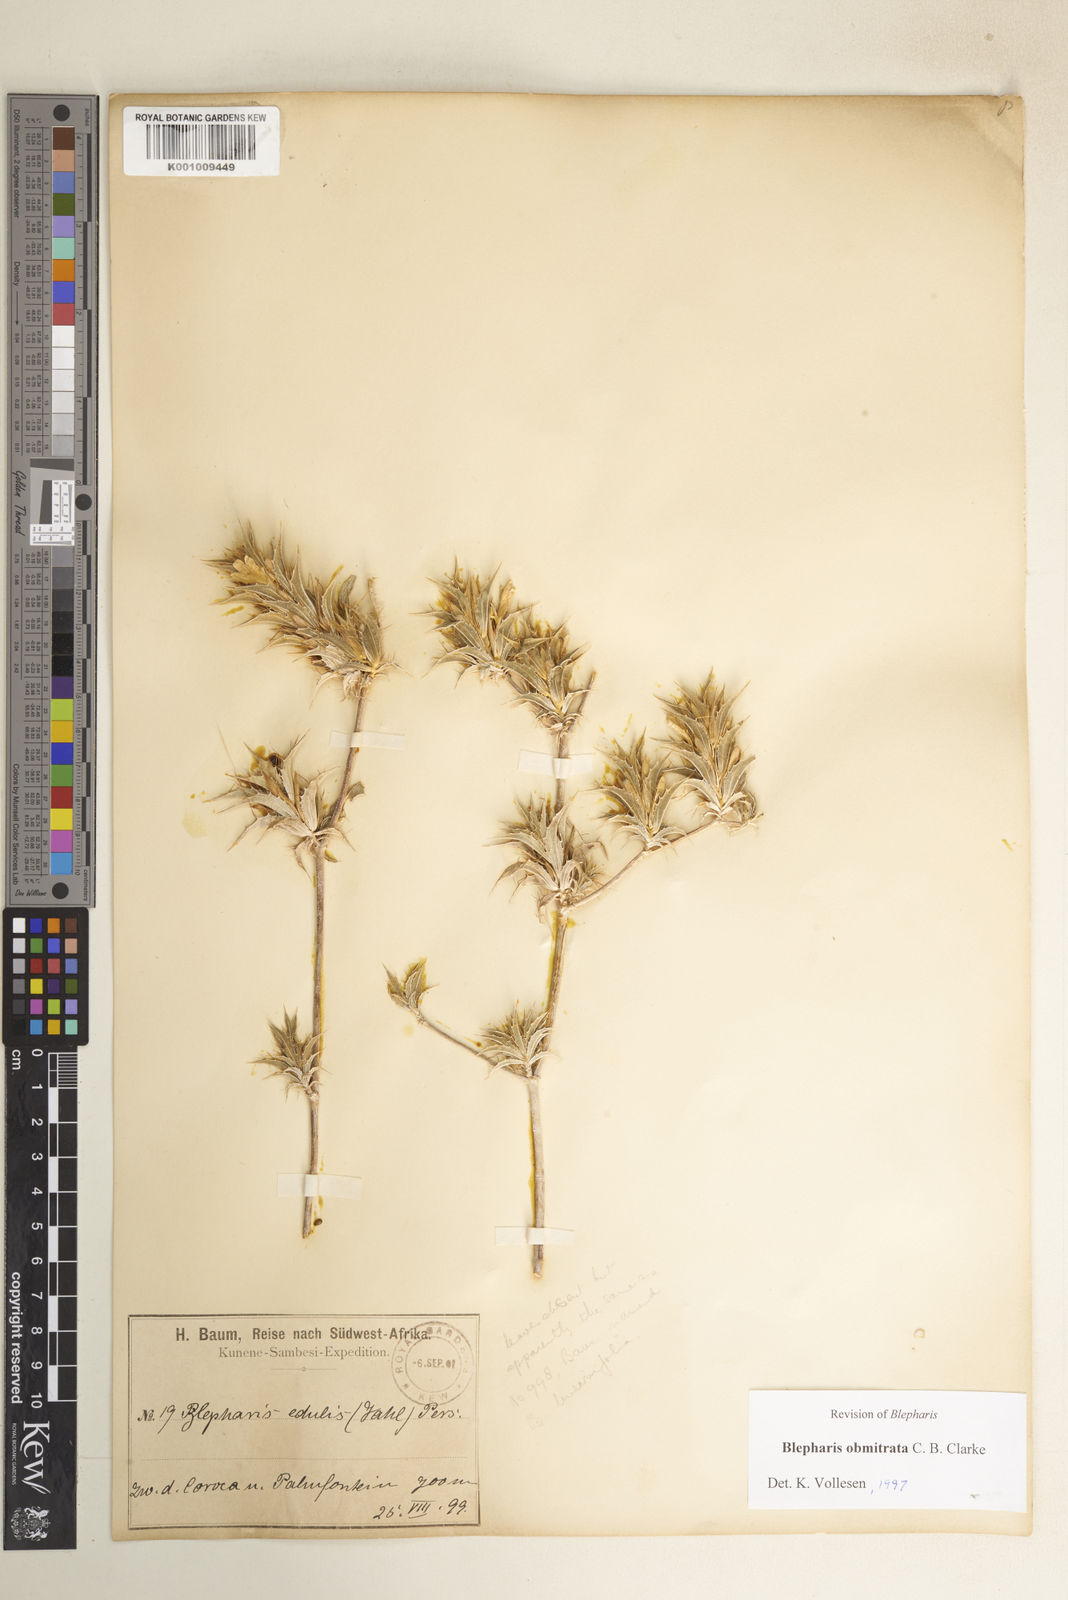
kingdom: Plantae
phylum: Tracheophyta
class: Magnoliopsida
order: Lamiales
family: Acanthaceae
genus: Blepharis
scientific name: Blepharis obmitrata
